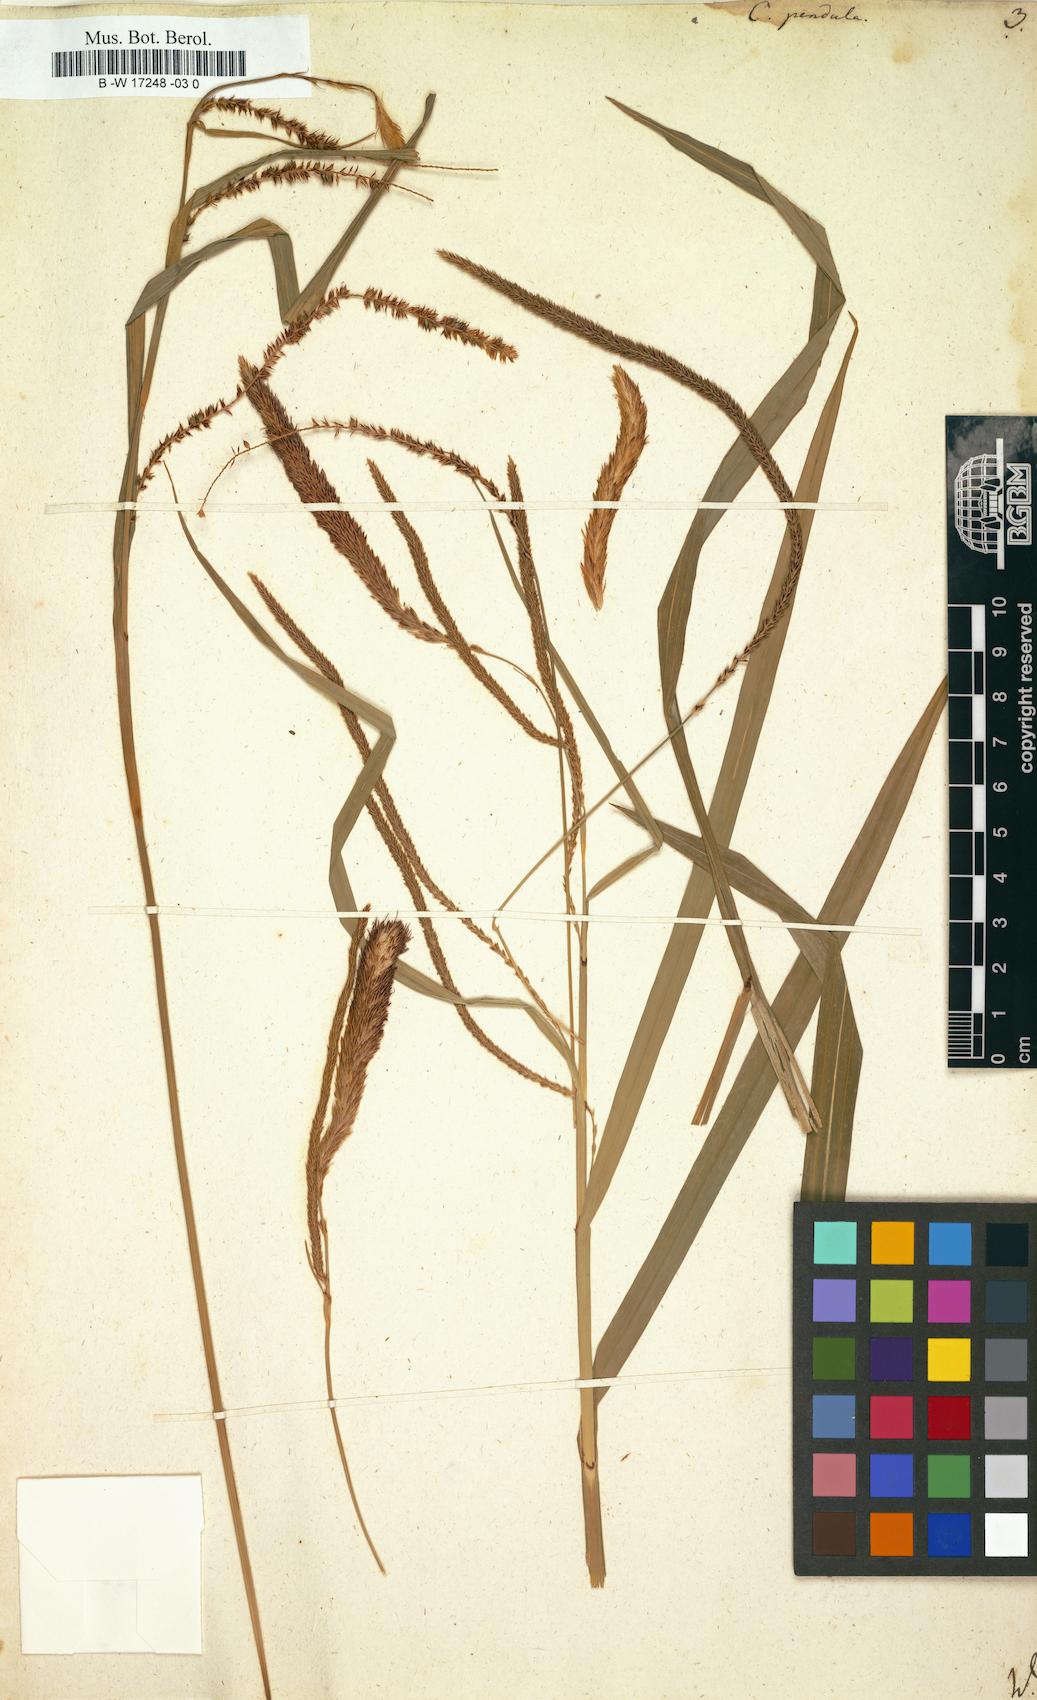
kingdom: Plantae
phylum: Tracheophyta
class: Liliopsida
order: Poales
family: Cyperaceae
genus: Carex
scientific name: Carex pendula
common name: Pendulous sedge
